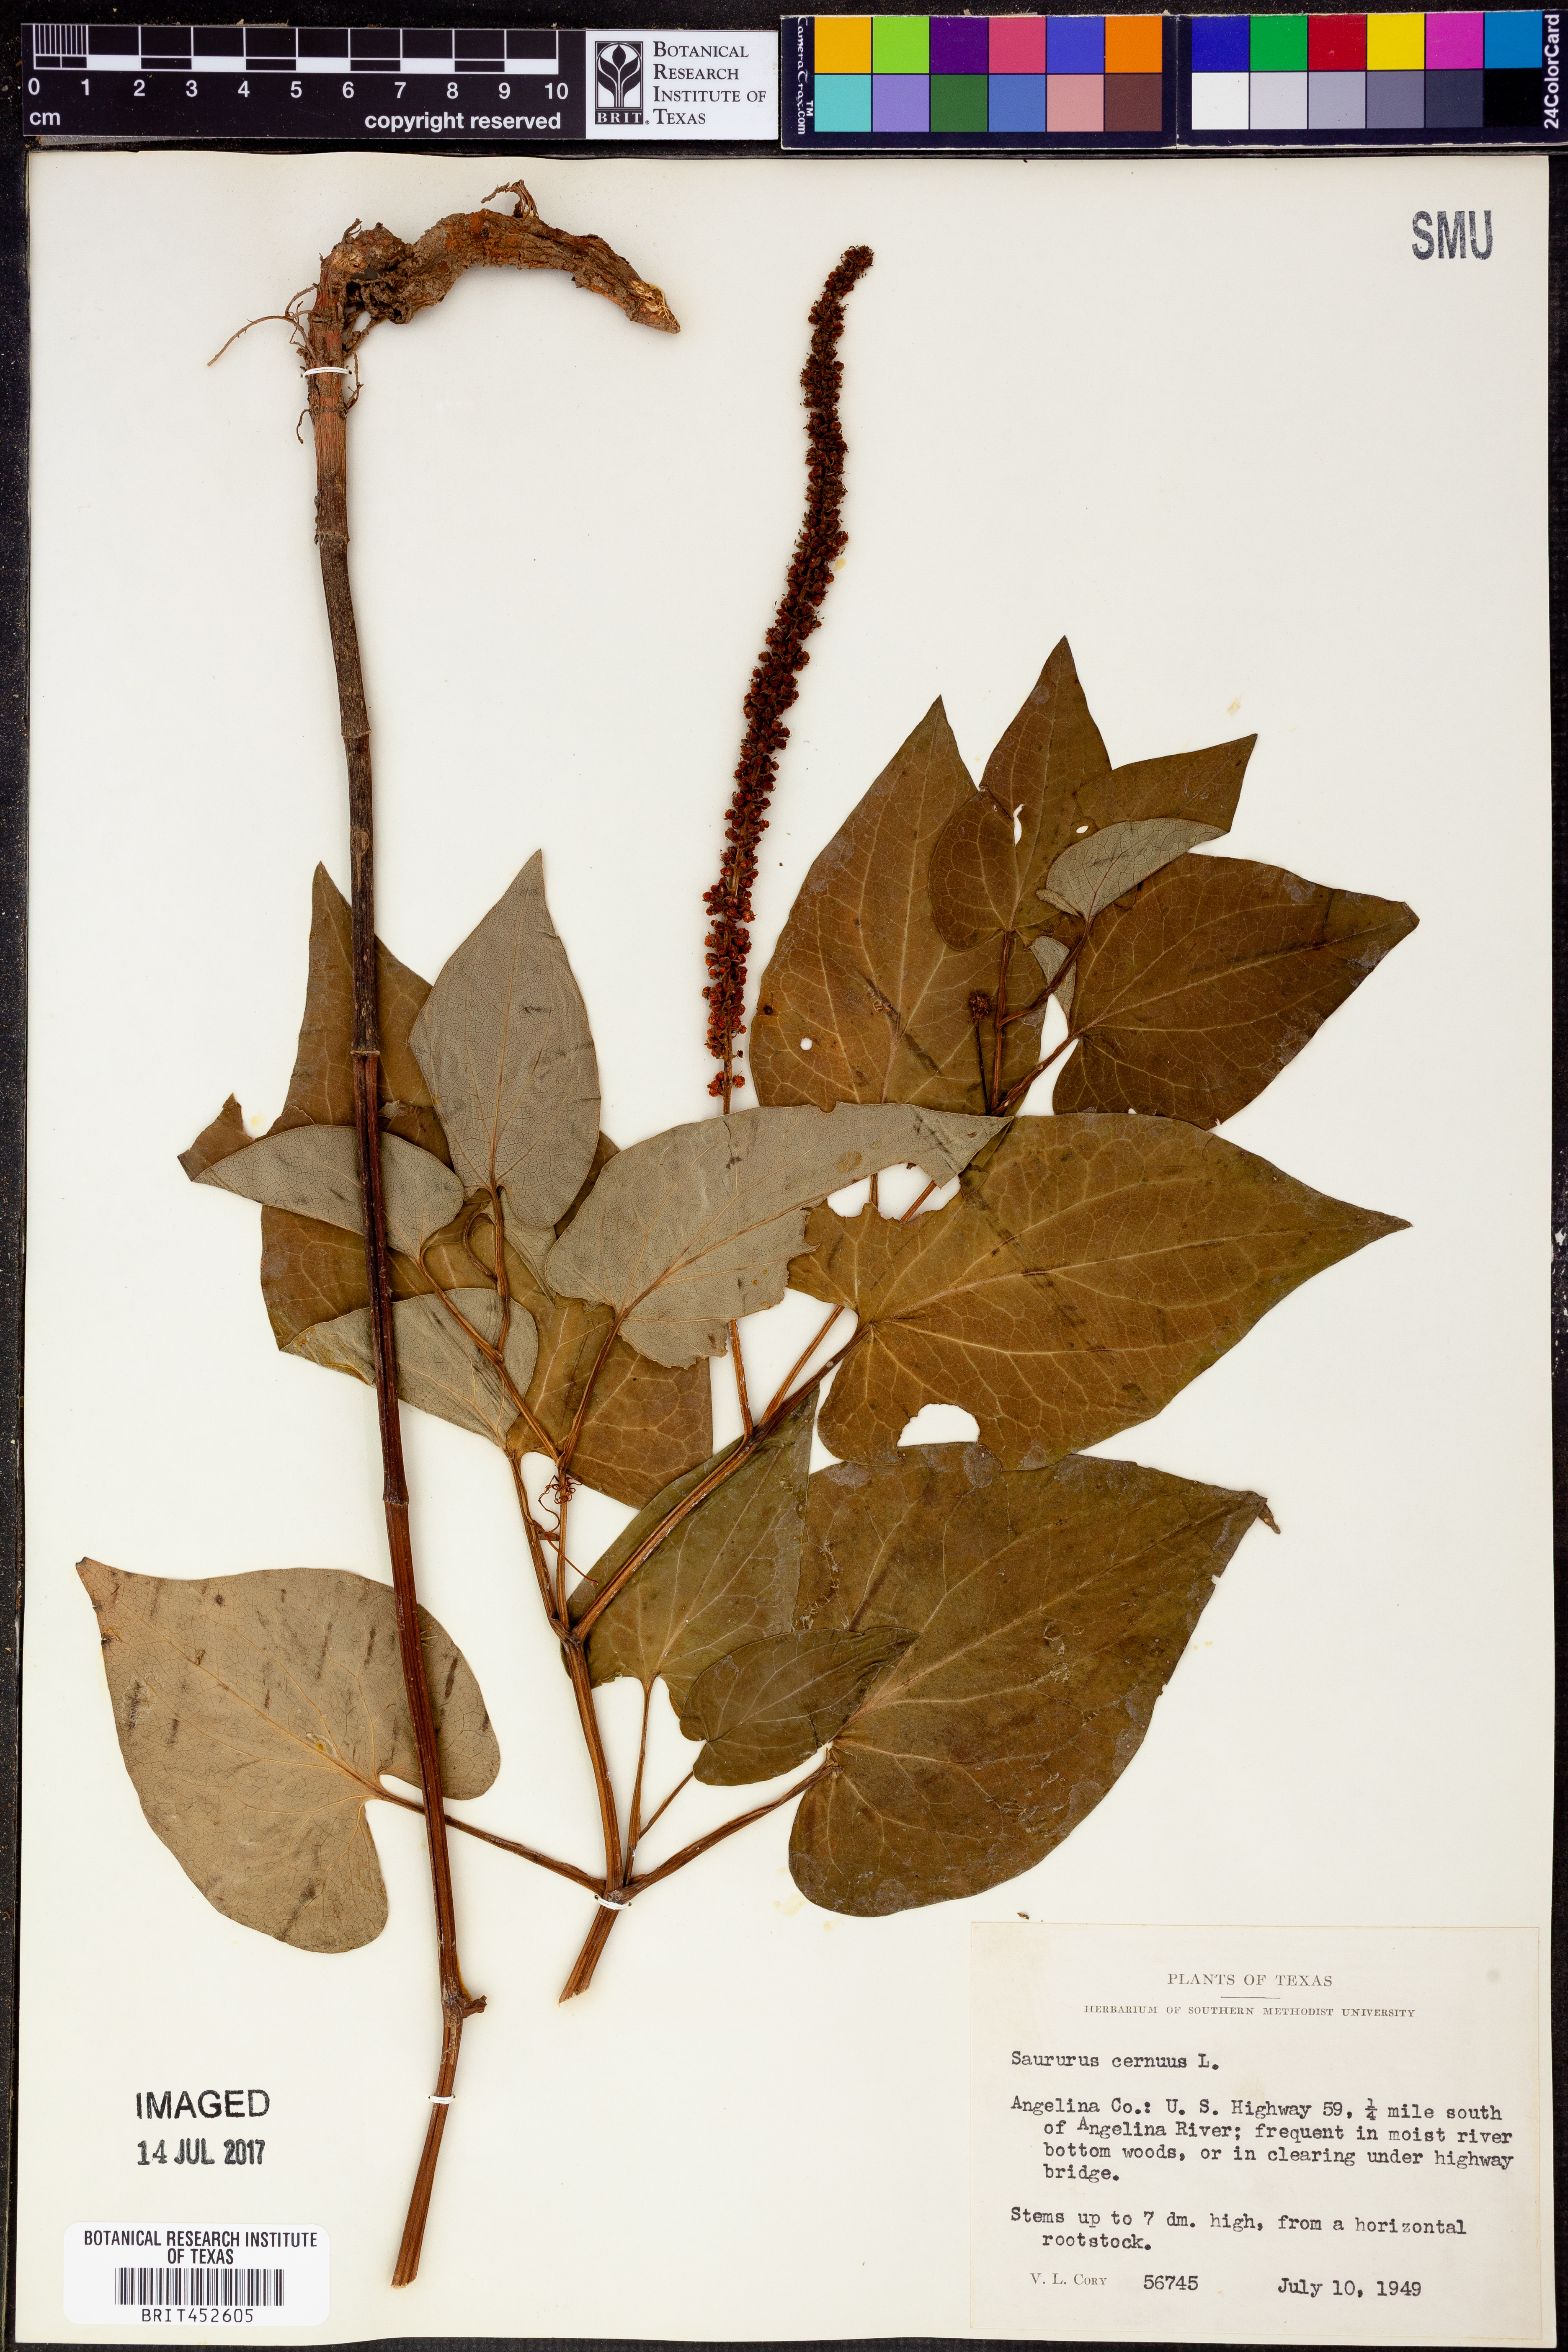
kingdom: Plantae
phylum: Tracheophyta
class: Magnoliopsida
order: Piperales
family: Saururaceae
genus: Saururus
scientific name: Saururus cernuus
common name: Lizard's-tail
